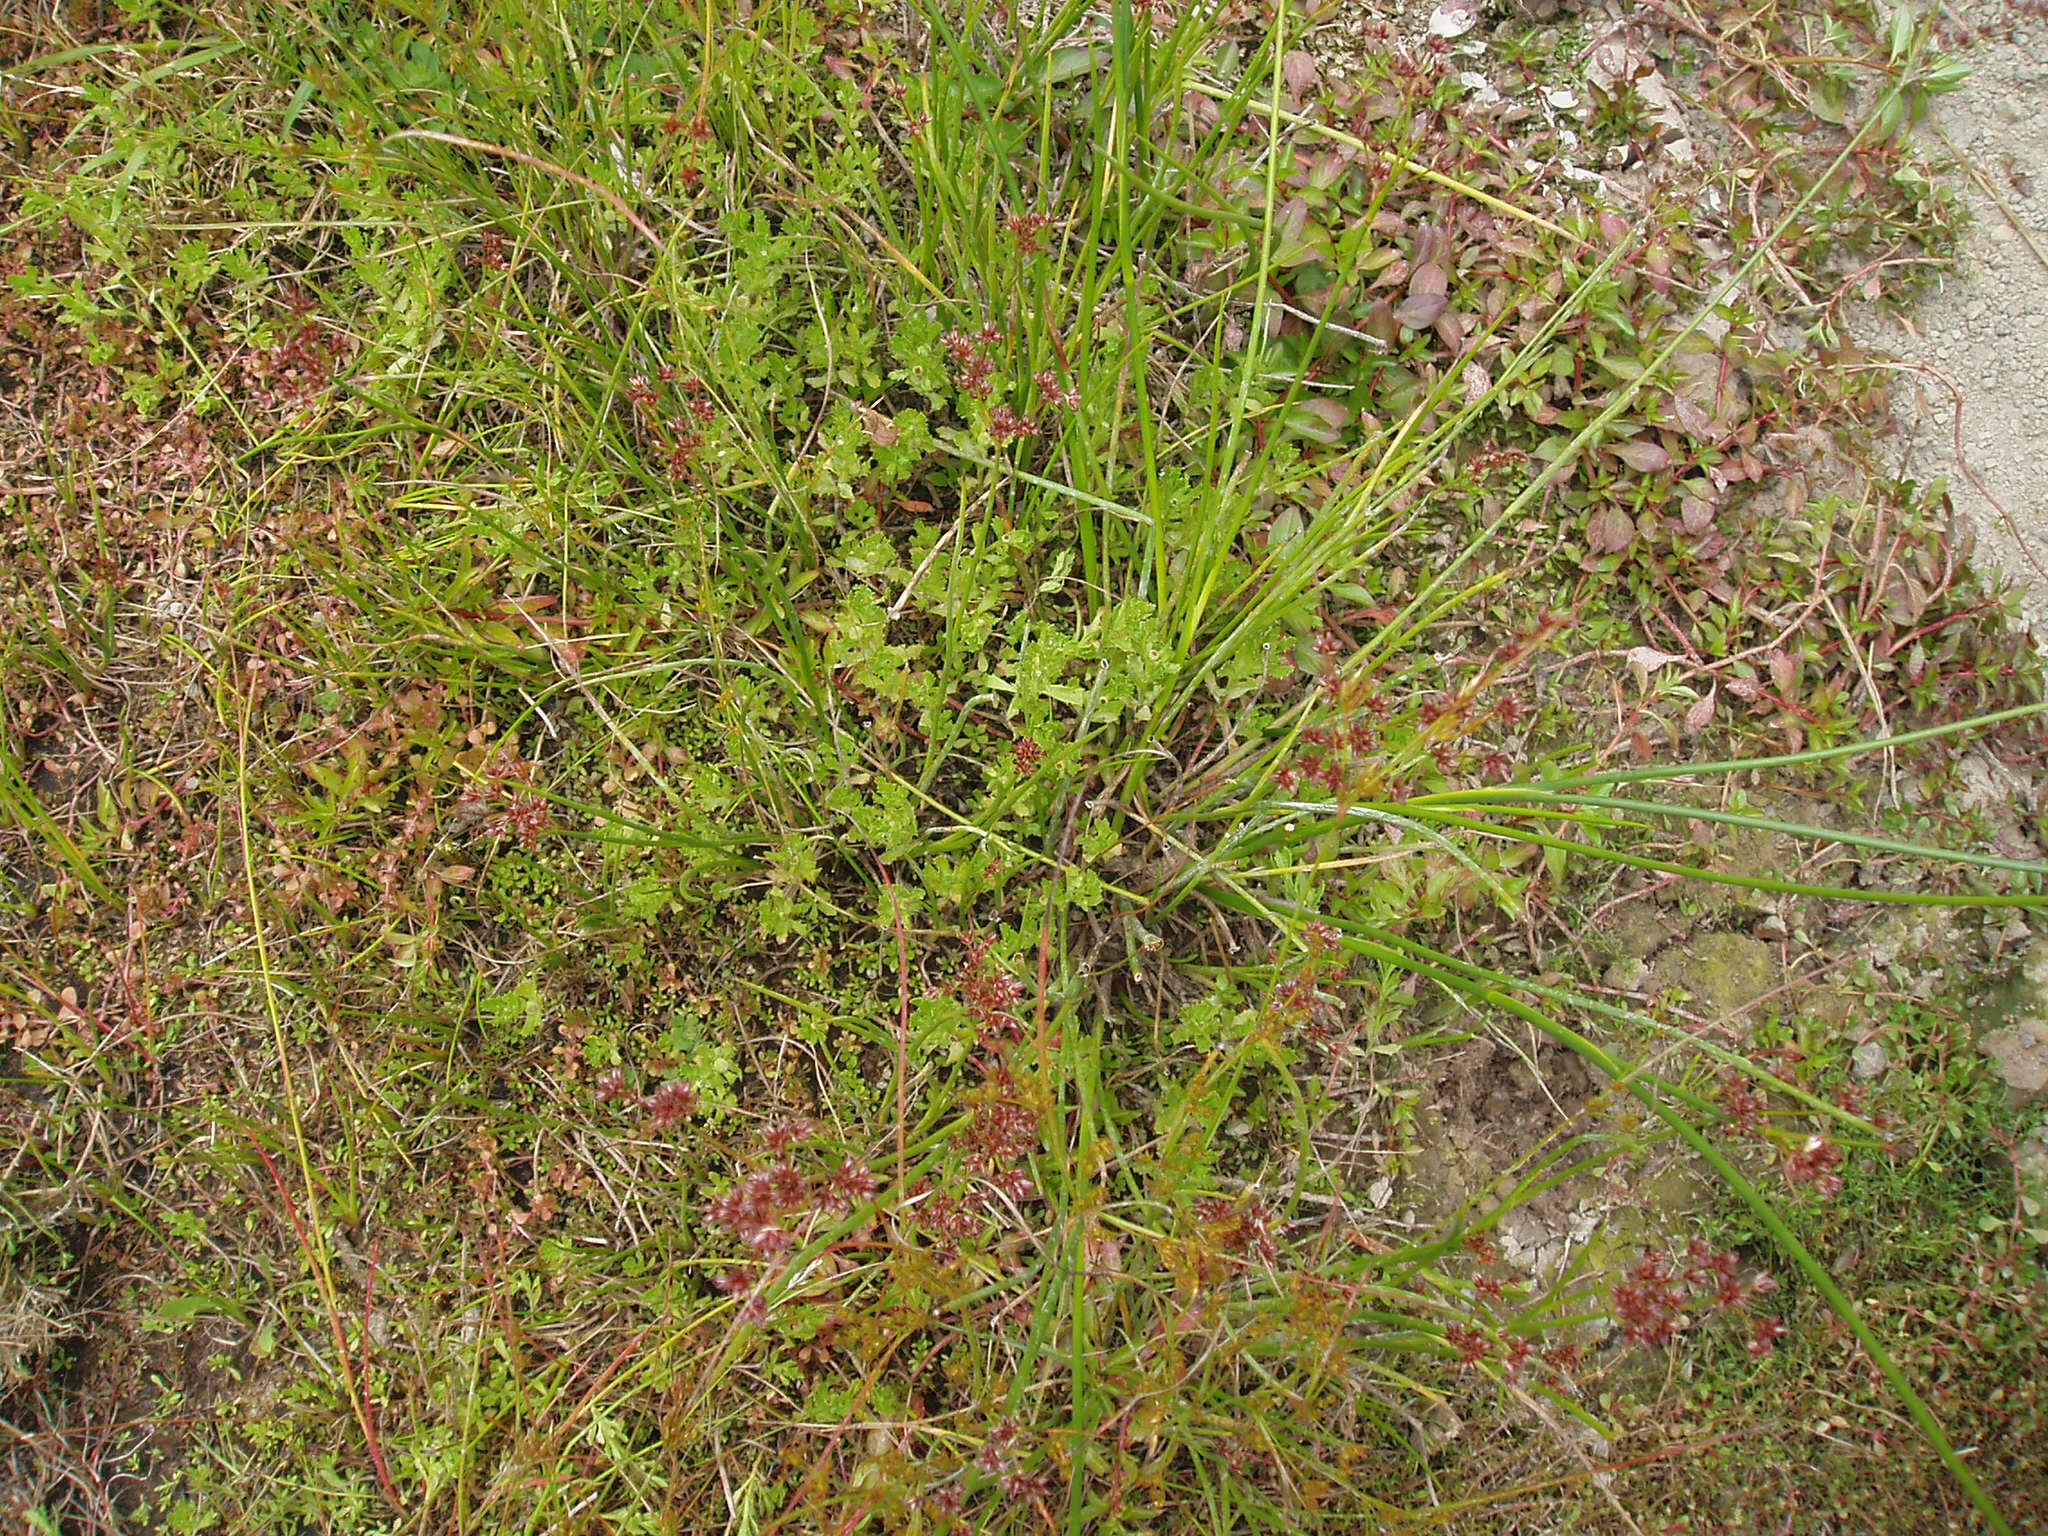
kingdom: Plantae
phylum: Tracheophyta
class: Magnoliopsida
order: Asterales
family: Asteraceae
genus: Centipeda
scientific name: Centipeda cunninghamii
